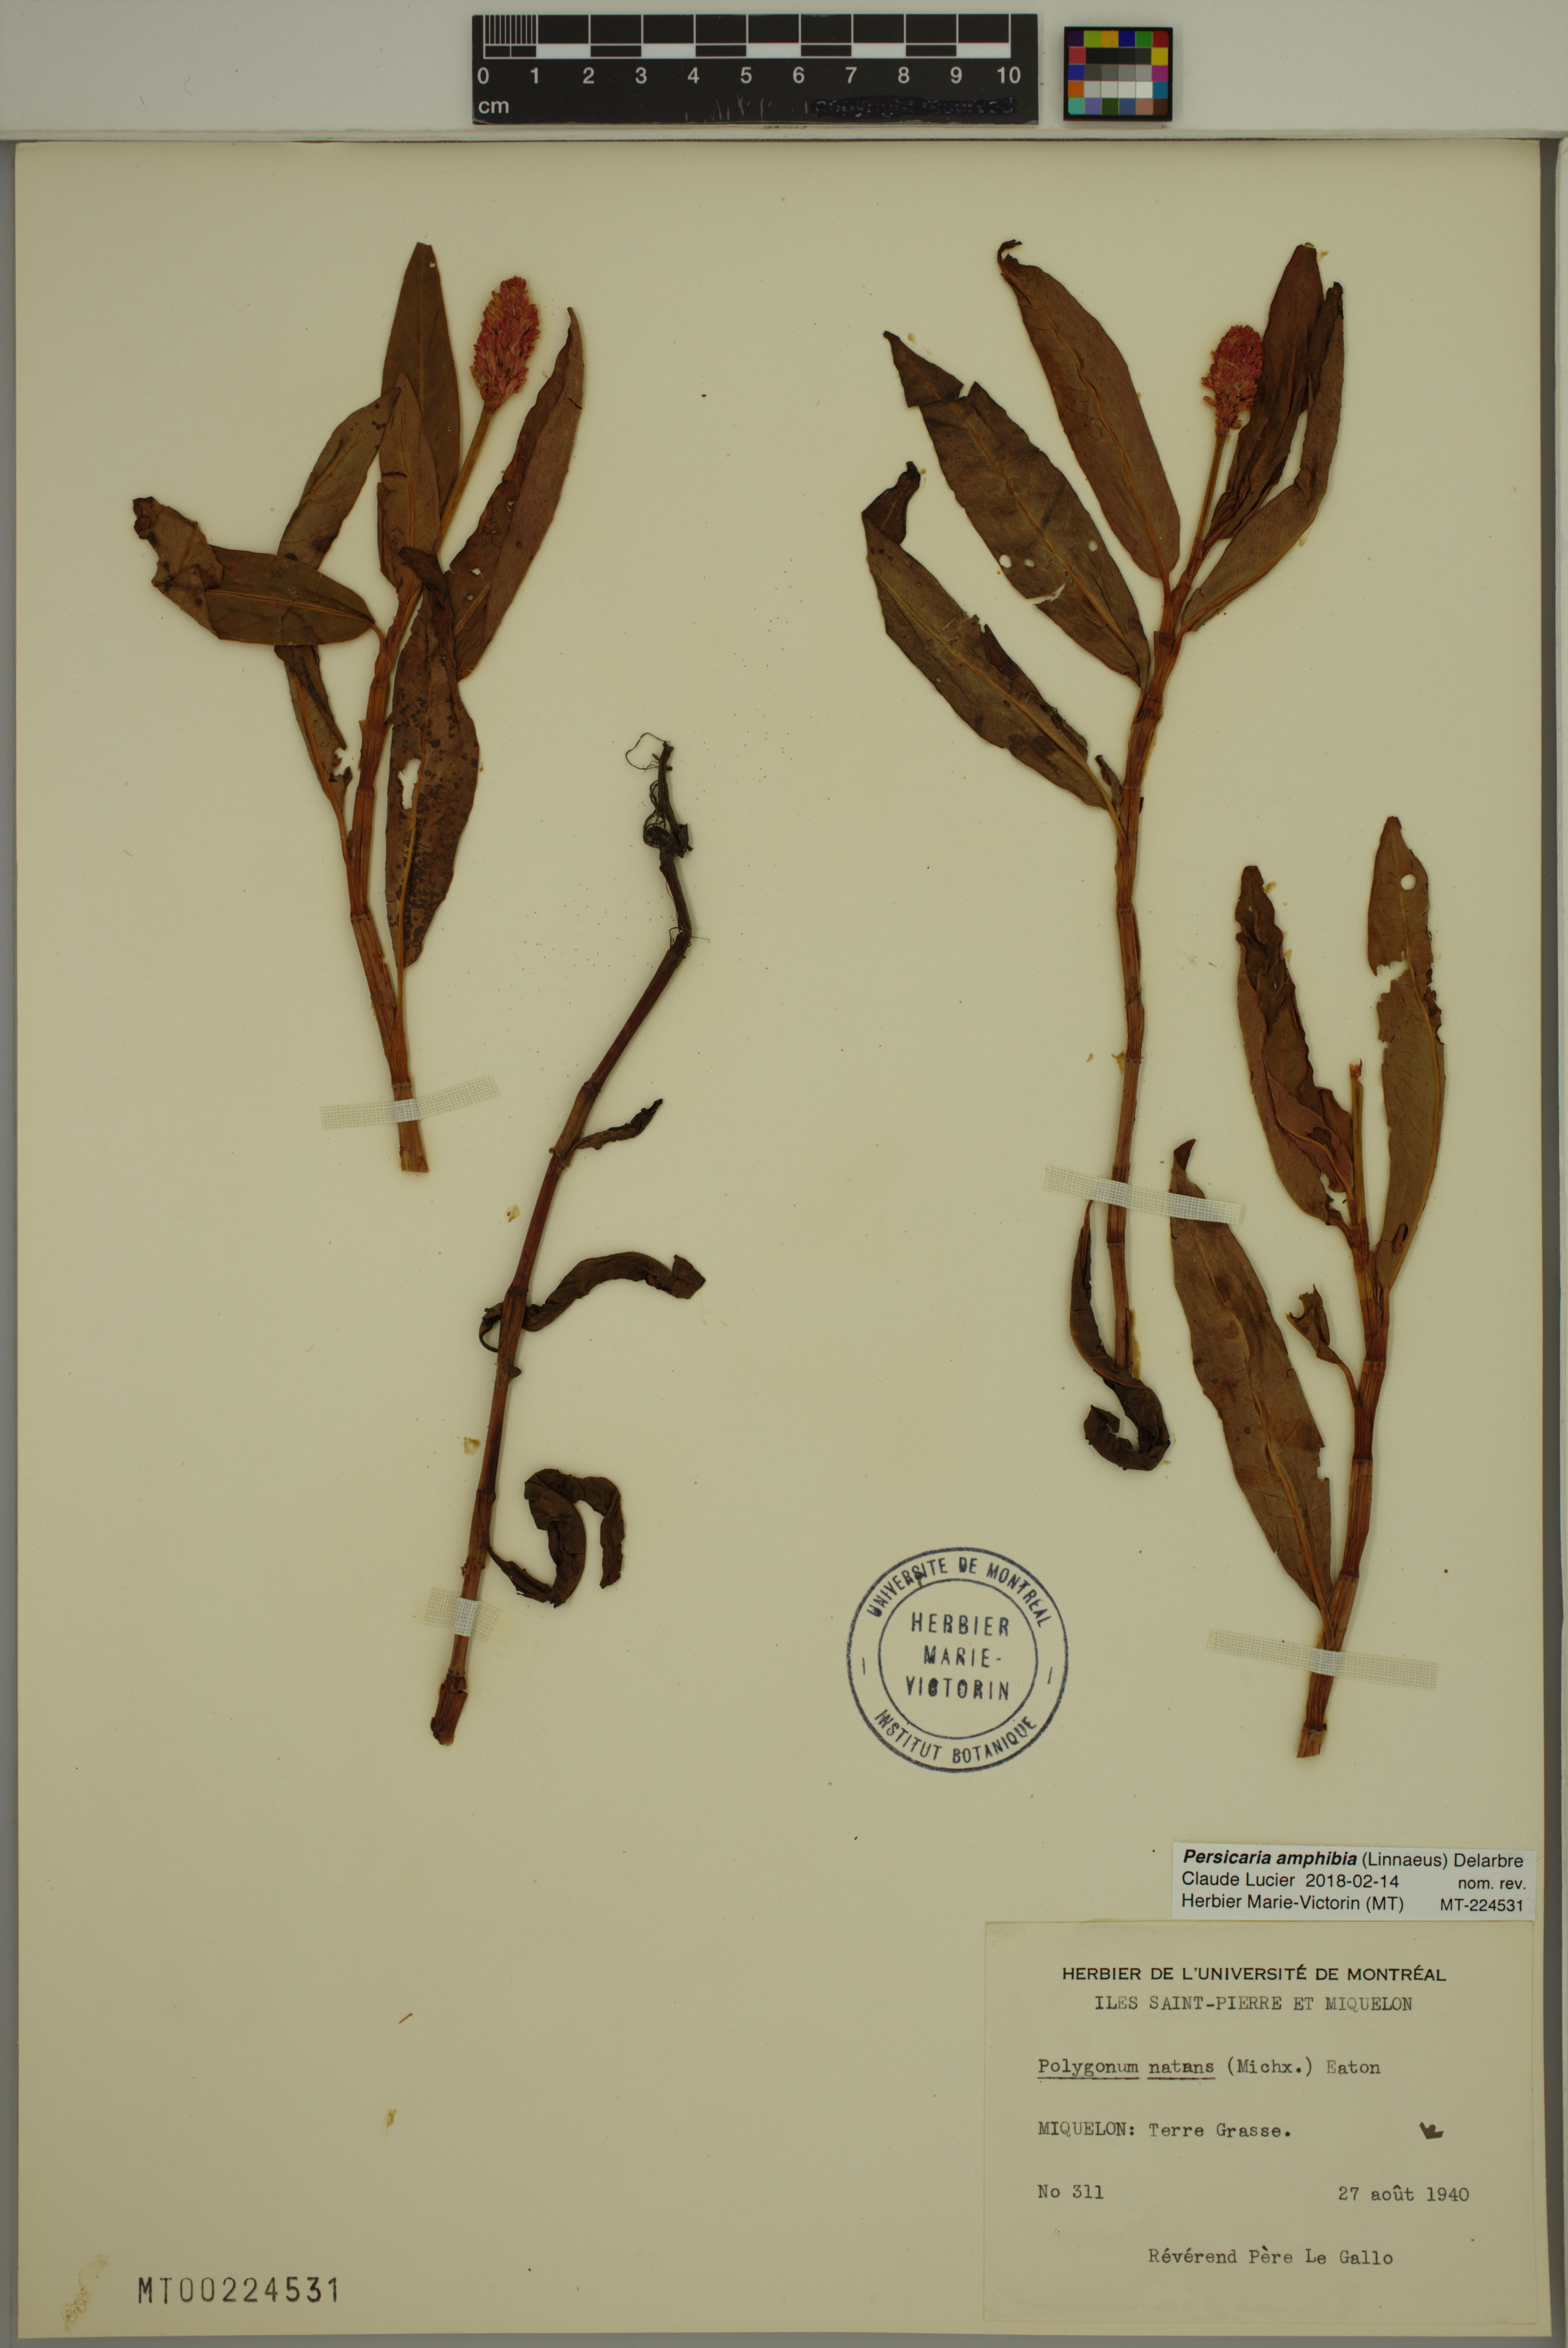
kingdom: Plantae
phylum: Tracheophyta
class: Magnoliopsida
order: Caryophyllales
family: Polygonaceae
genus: Persicaria
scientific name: Persicaria amphibia
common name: Amphibious bistort
